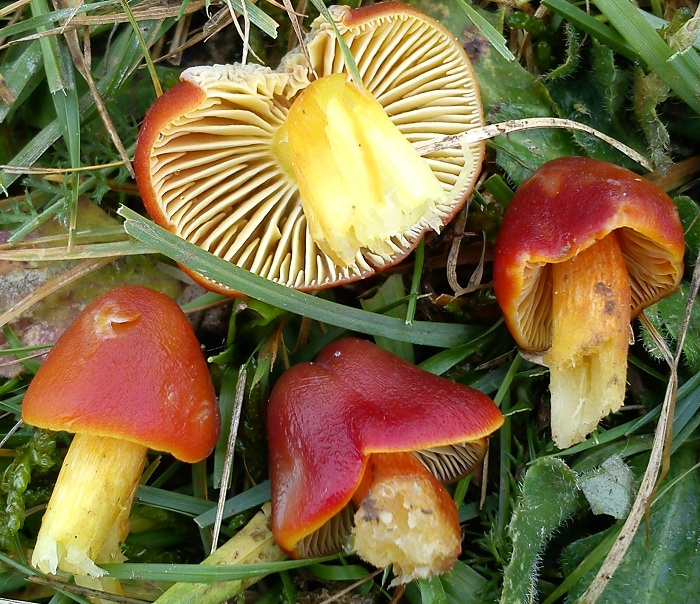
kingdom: Fungi
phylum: Basidiomycota
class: Agaricomycetes
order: Agaricales
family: Hygrophoraceae
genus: Hygrocybe
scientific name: Hygrocybe punicea
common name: skarlagen-vokshat
